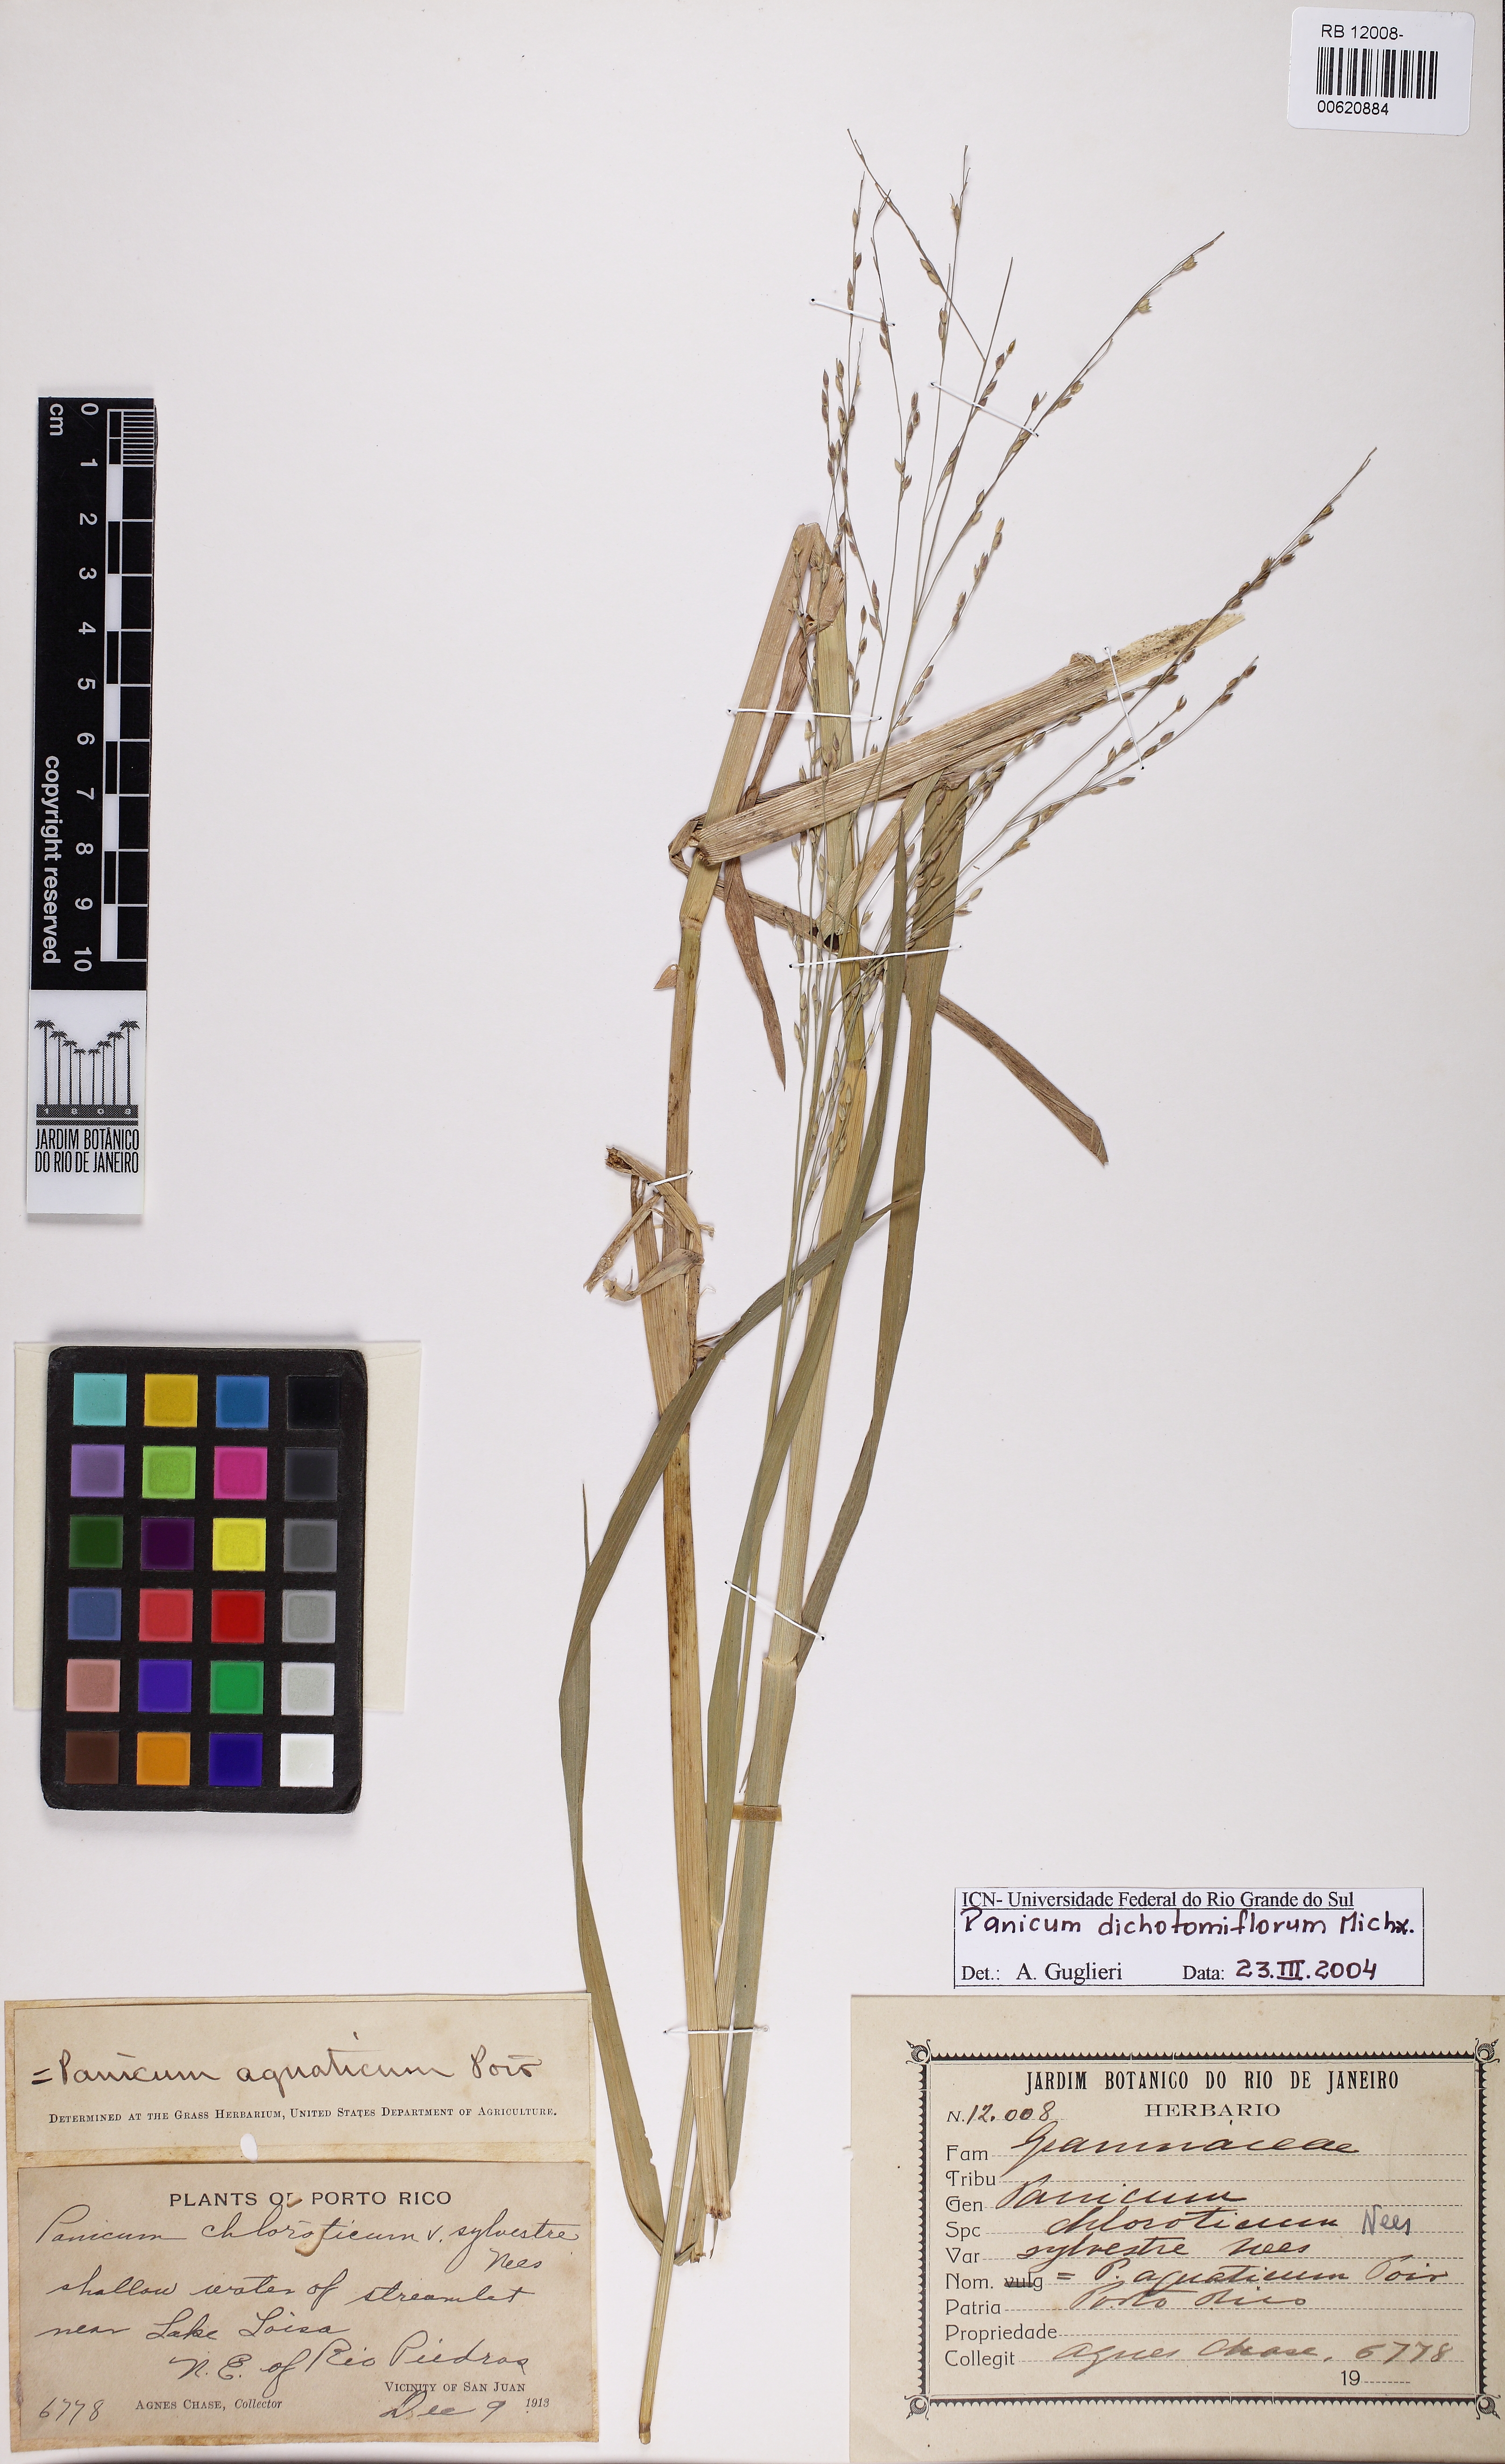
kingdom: Plantae
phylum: Tracheophyta
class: Liliopsida
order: Poales
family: Poaceae
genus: Panicum
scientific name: Panicum dichotomiflorum
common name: Autumn millet
